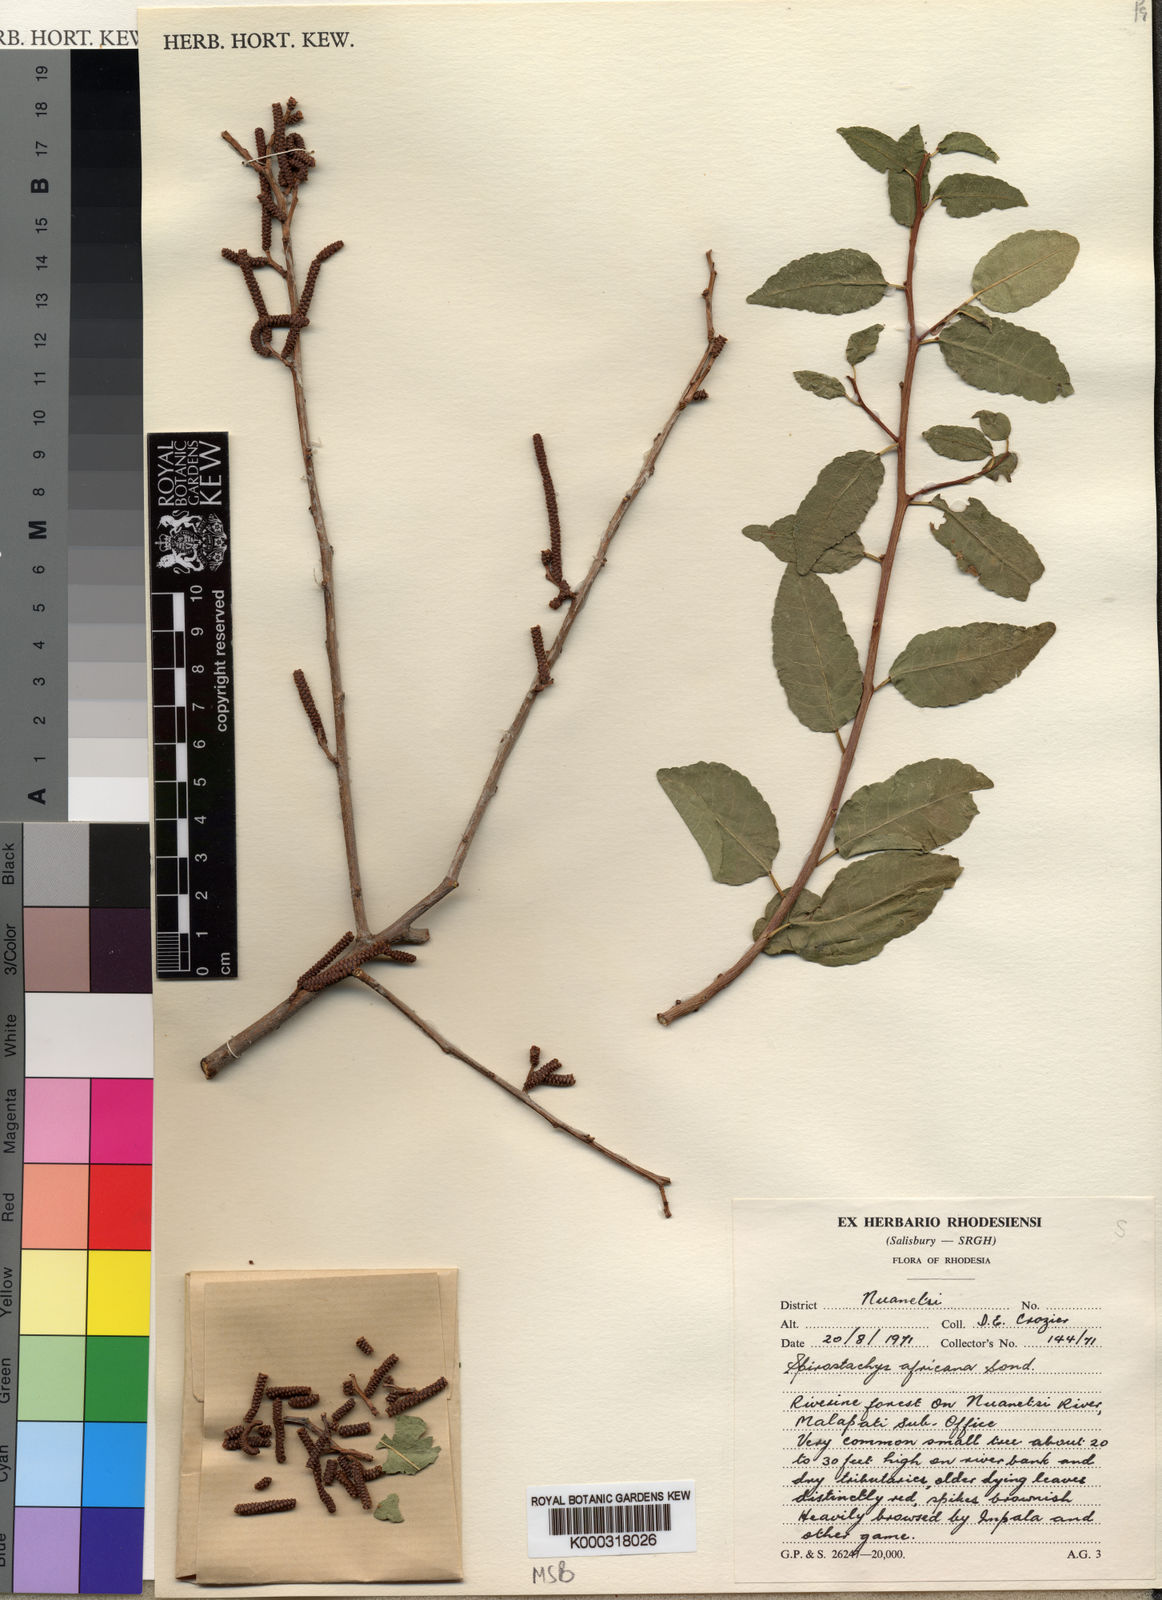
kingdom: Plantae
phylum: Tracheophyta
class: Magnoliopsida
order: Malpighiales
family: Euphorbiaceae
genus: Spirostachys
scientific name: Spirostachys africana
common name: Tamboti
